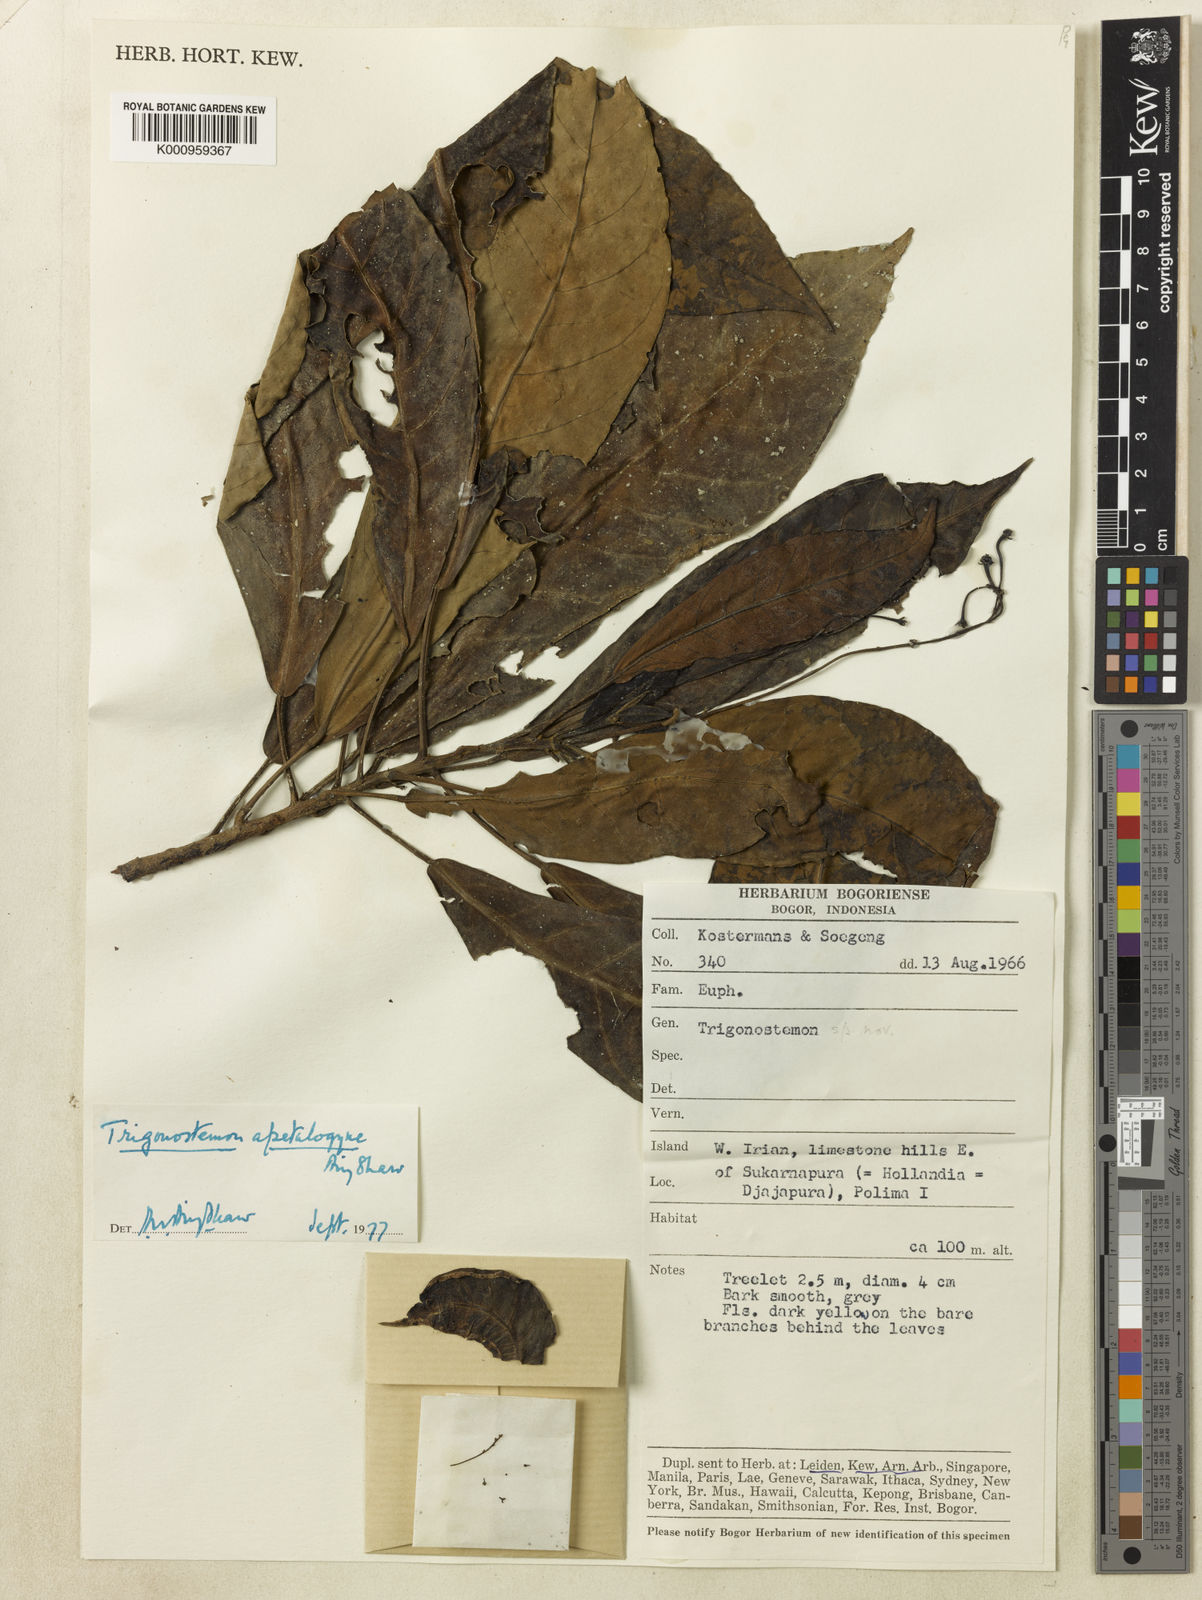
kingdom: Plantae
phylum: Tracheophyta
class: Magnoliopsida
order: Malpighiales
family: Euphorbiaceae
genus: Trigonostemon
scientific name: Trigonostemon apetalogyne
